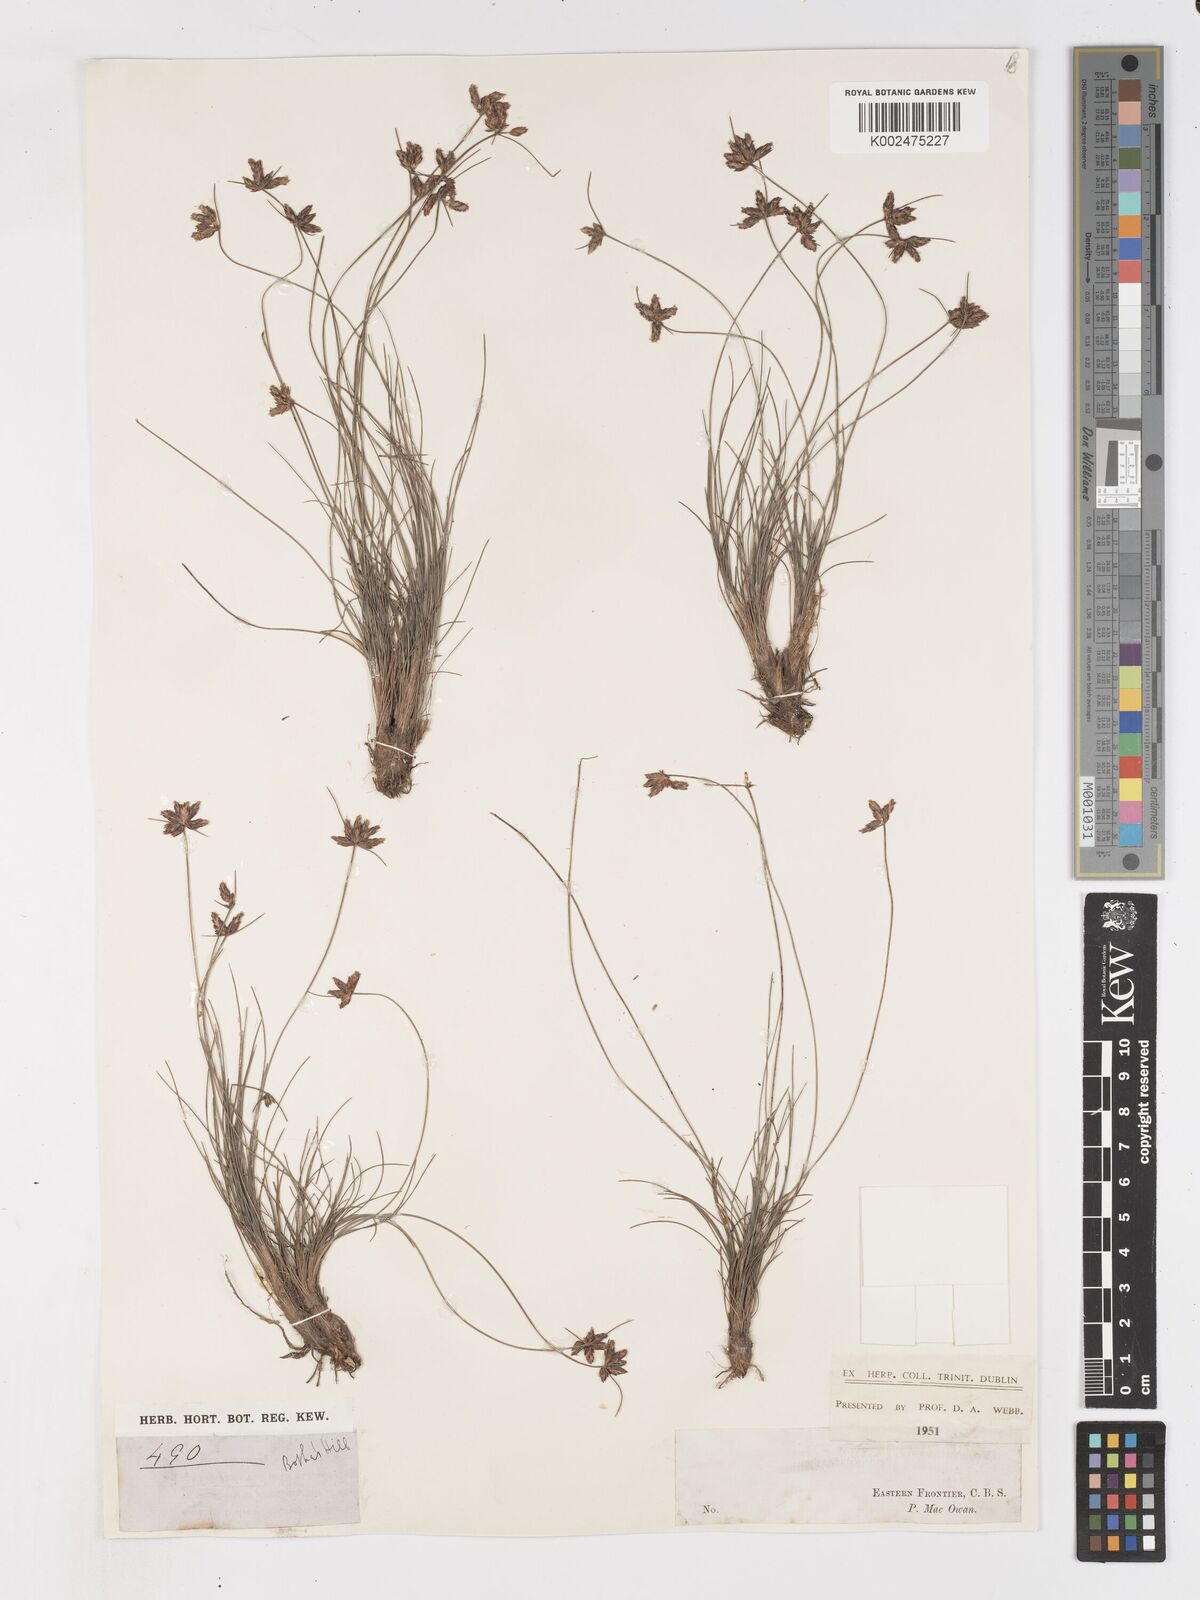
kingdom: Plantae
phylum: Tracheophyta
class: Liliopsida
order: Poales
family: Cyperaceae
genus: Ficinia
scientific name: Ficinia tristachya
